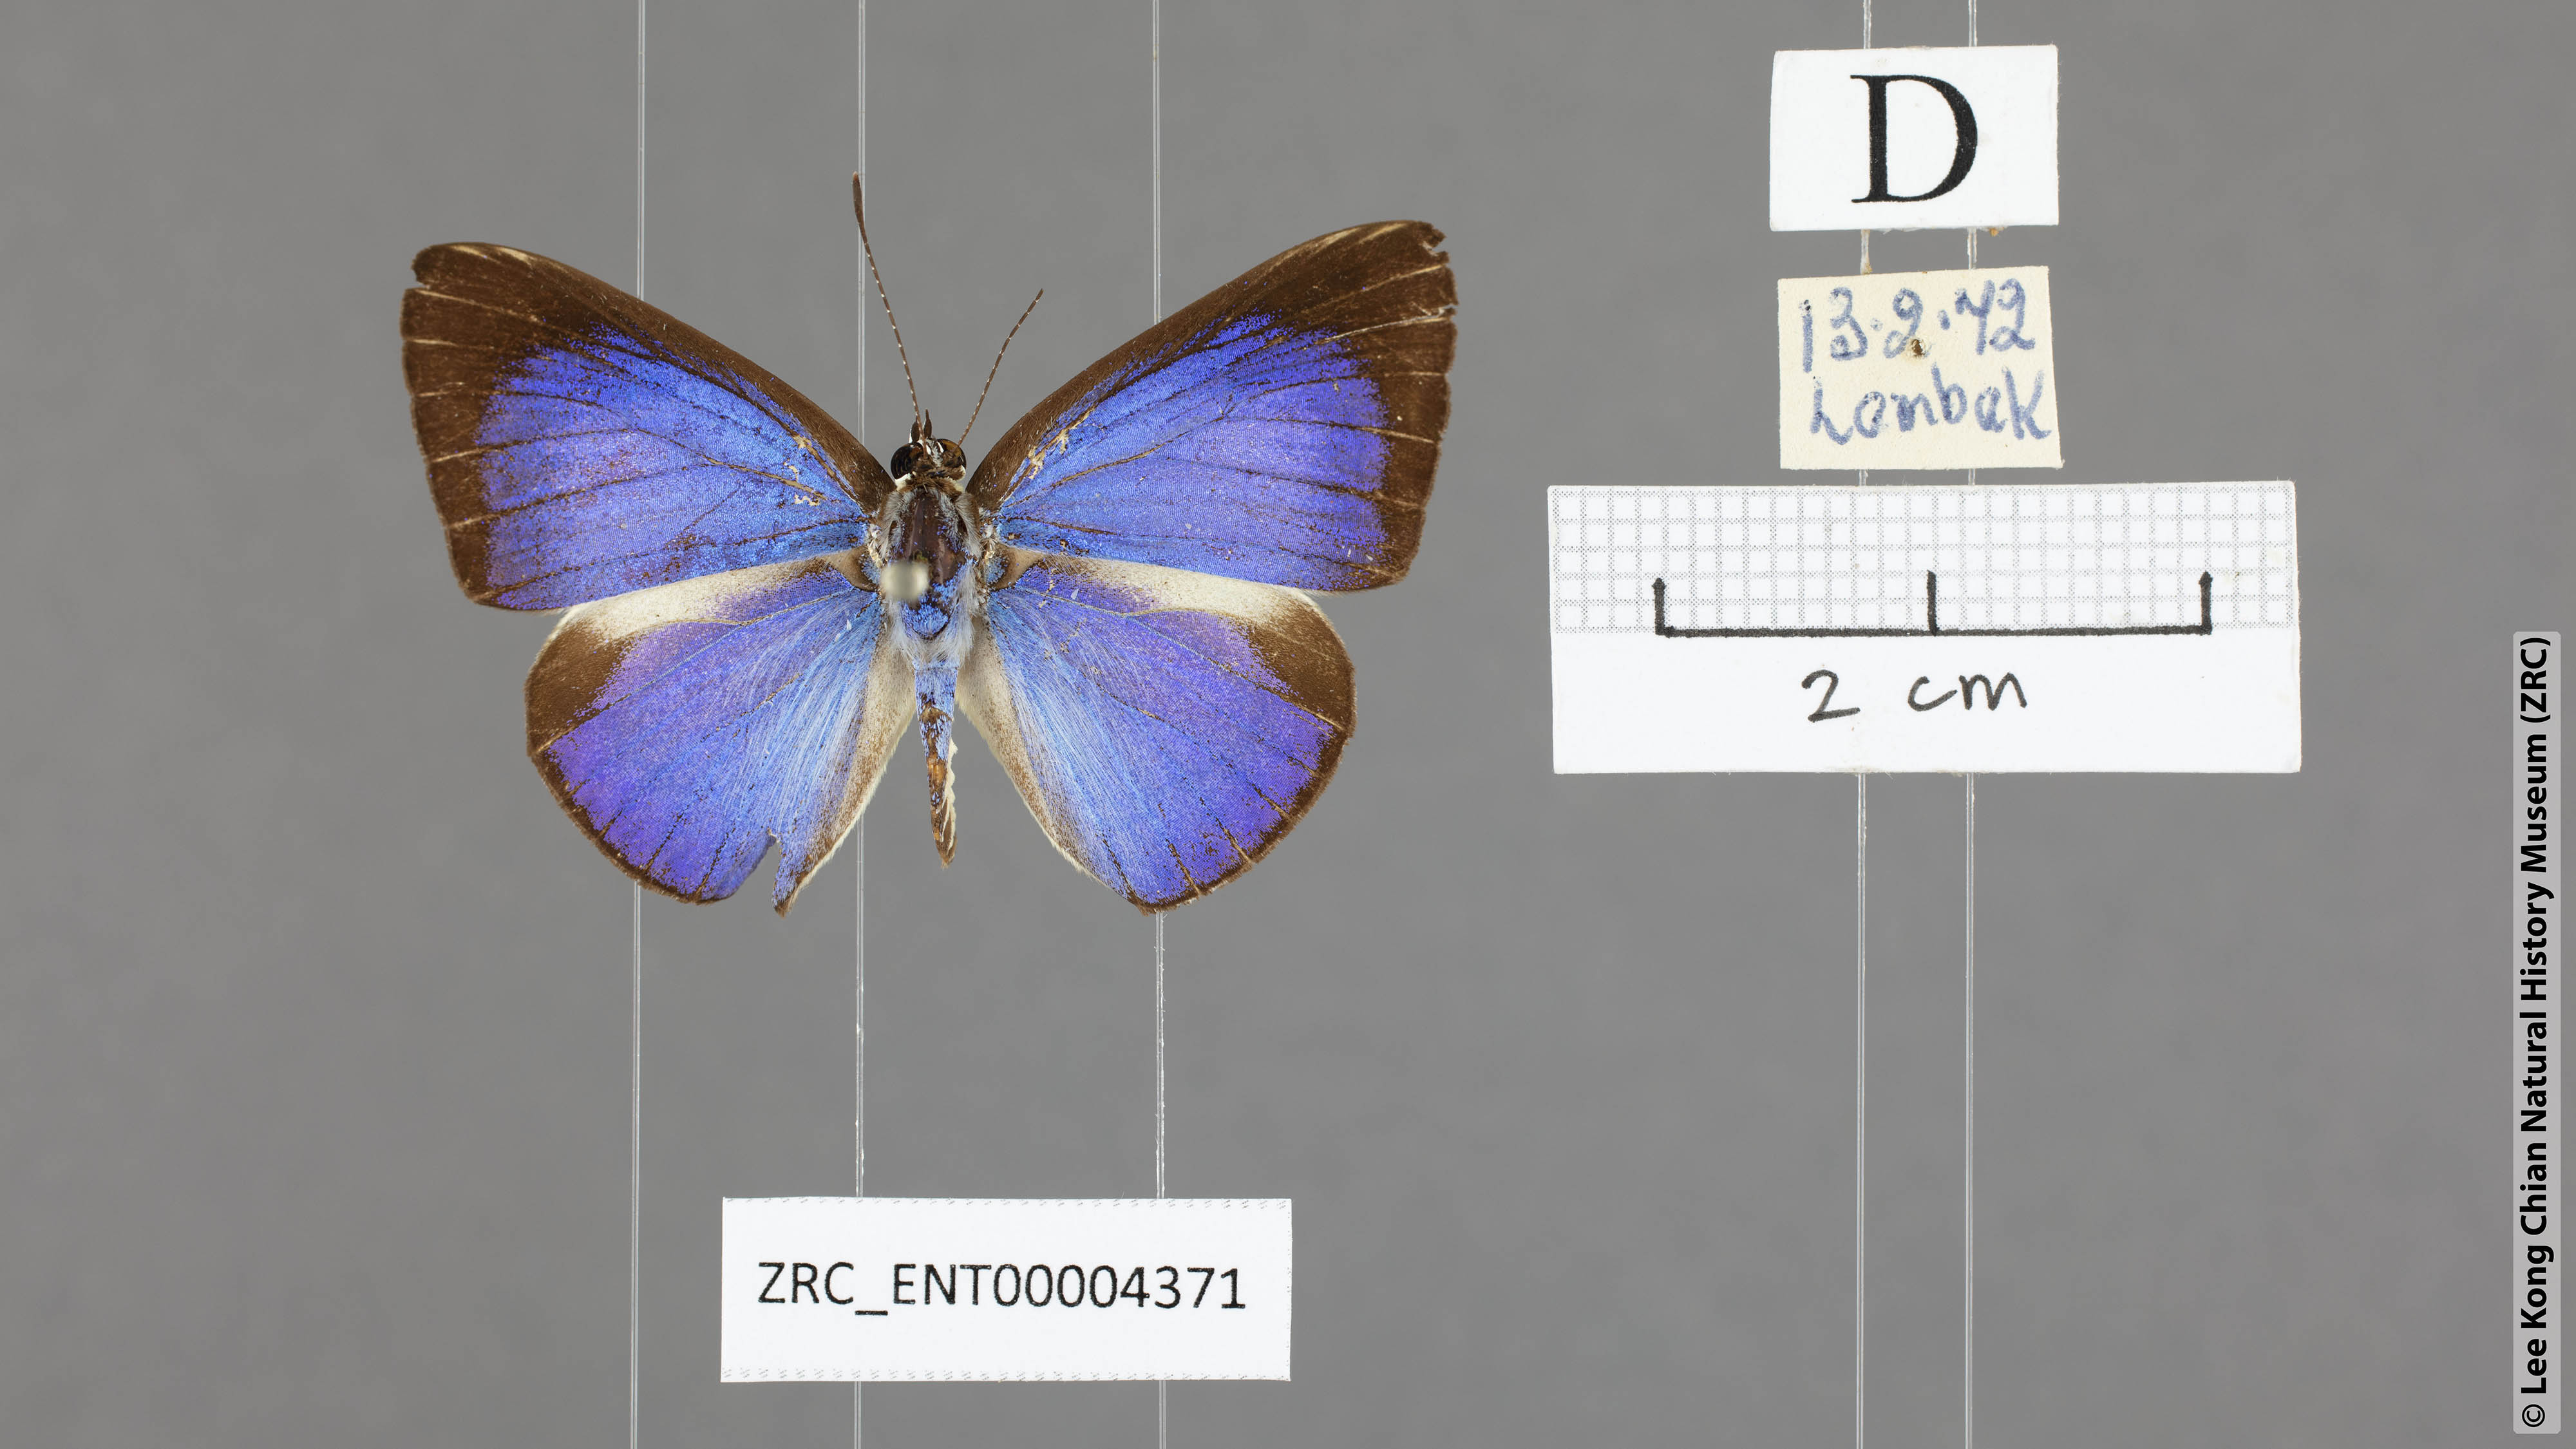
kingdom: Animalia
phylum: Arthropoda
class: Insecta
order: Lepidoptera
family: Lycaenidae
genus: Lycaenopsis
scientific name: Lycaenopsis haraldus
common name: Felder's hedge blue
